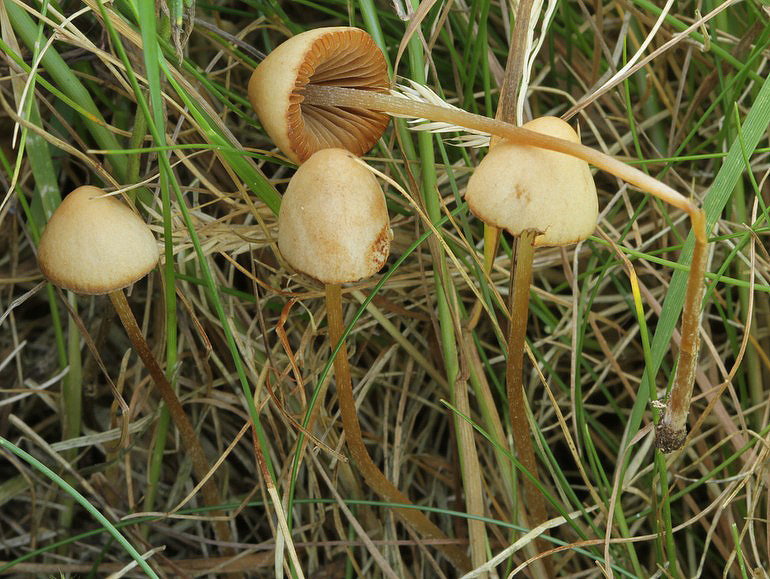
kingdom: Fungi
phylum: Basidiomycota
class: Agaricomycetes
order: Agaricales
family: Bolbitiaceae
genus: Conocybe
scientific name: Conocybe siliginea
